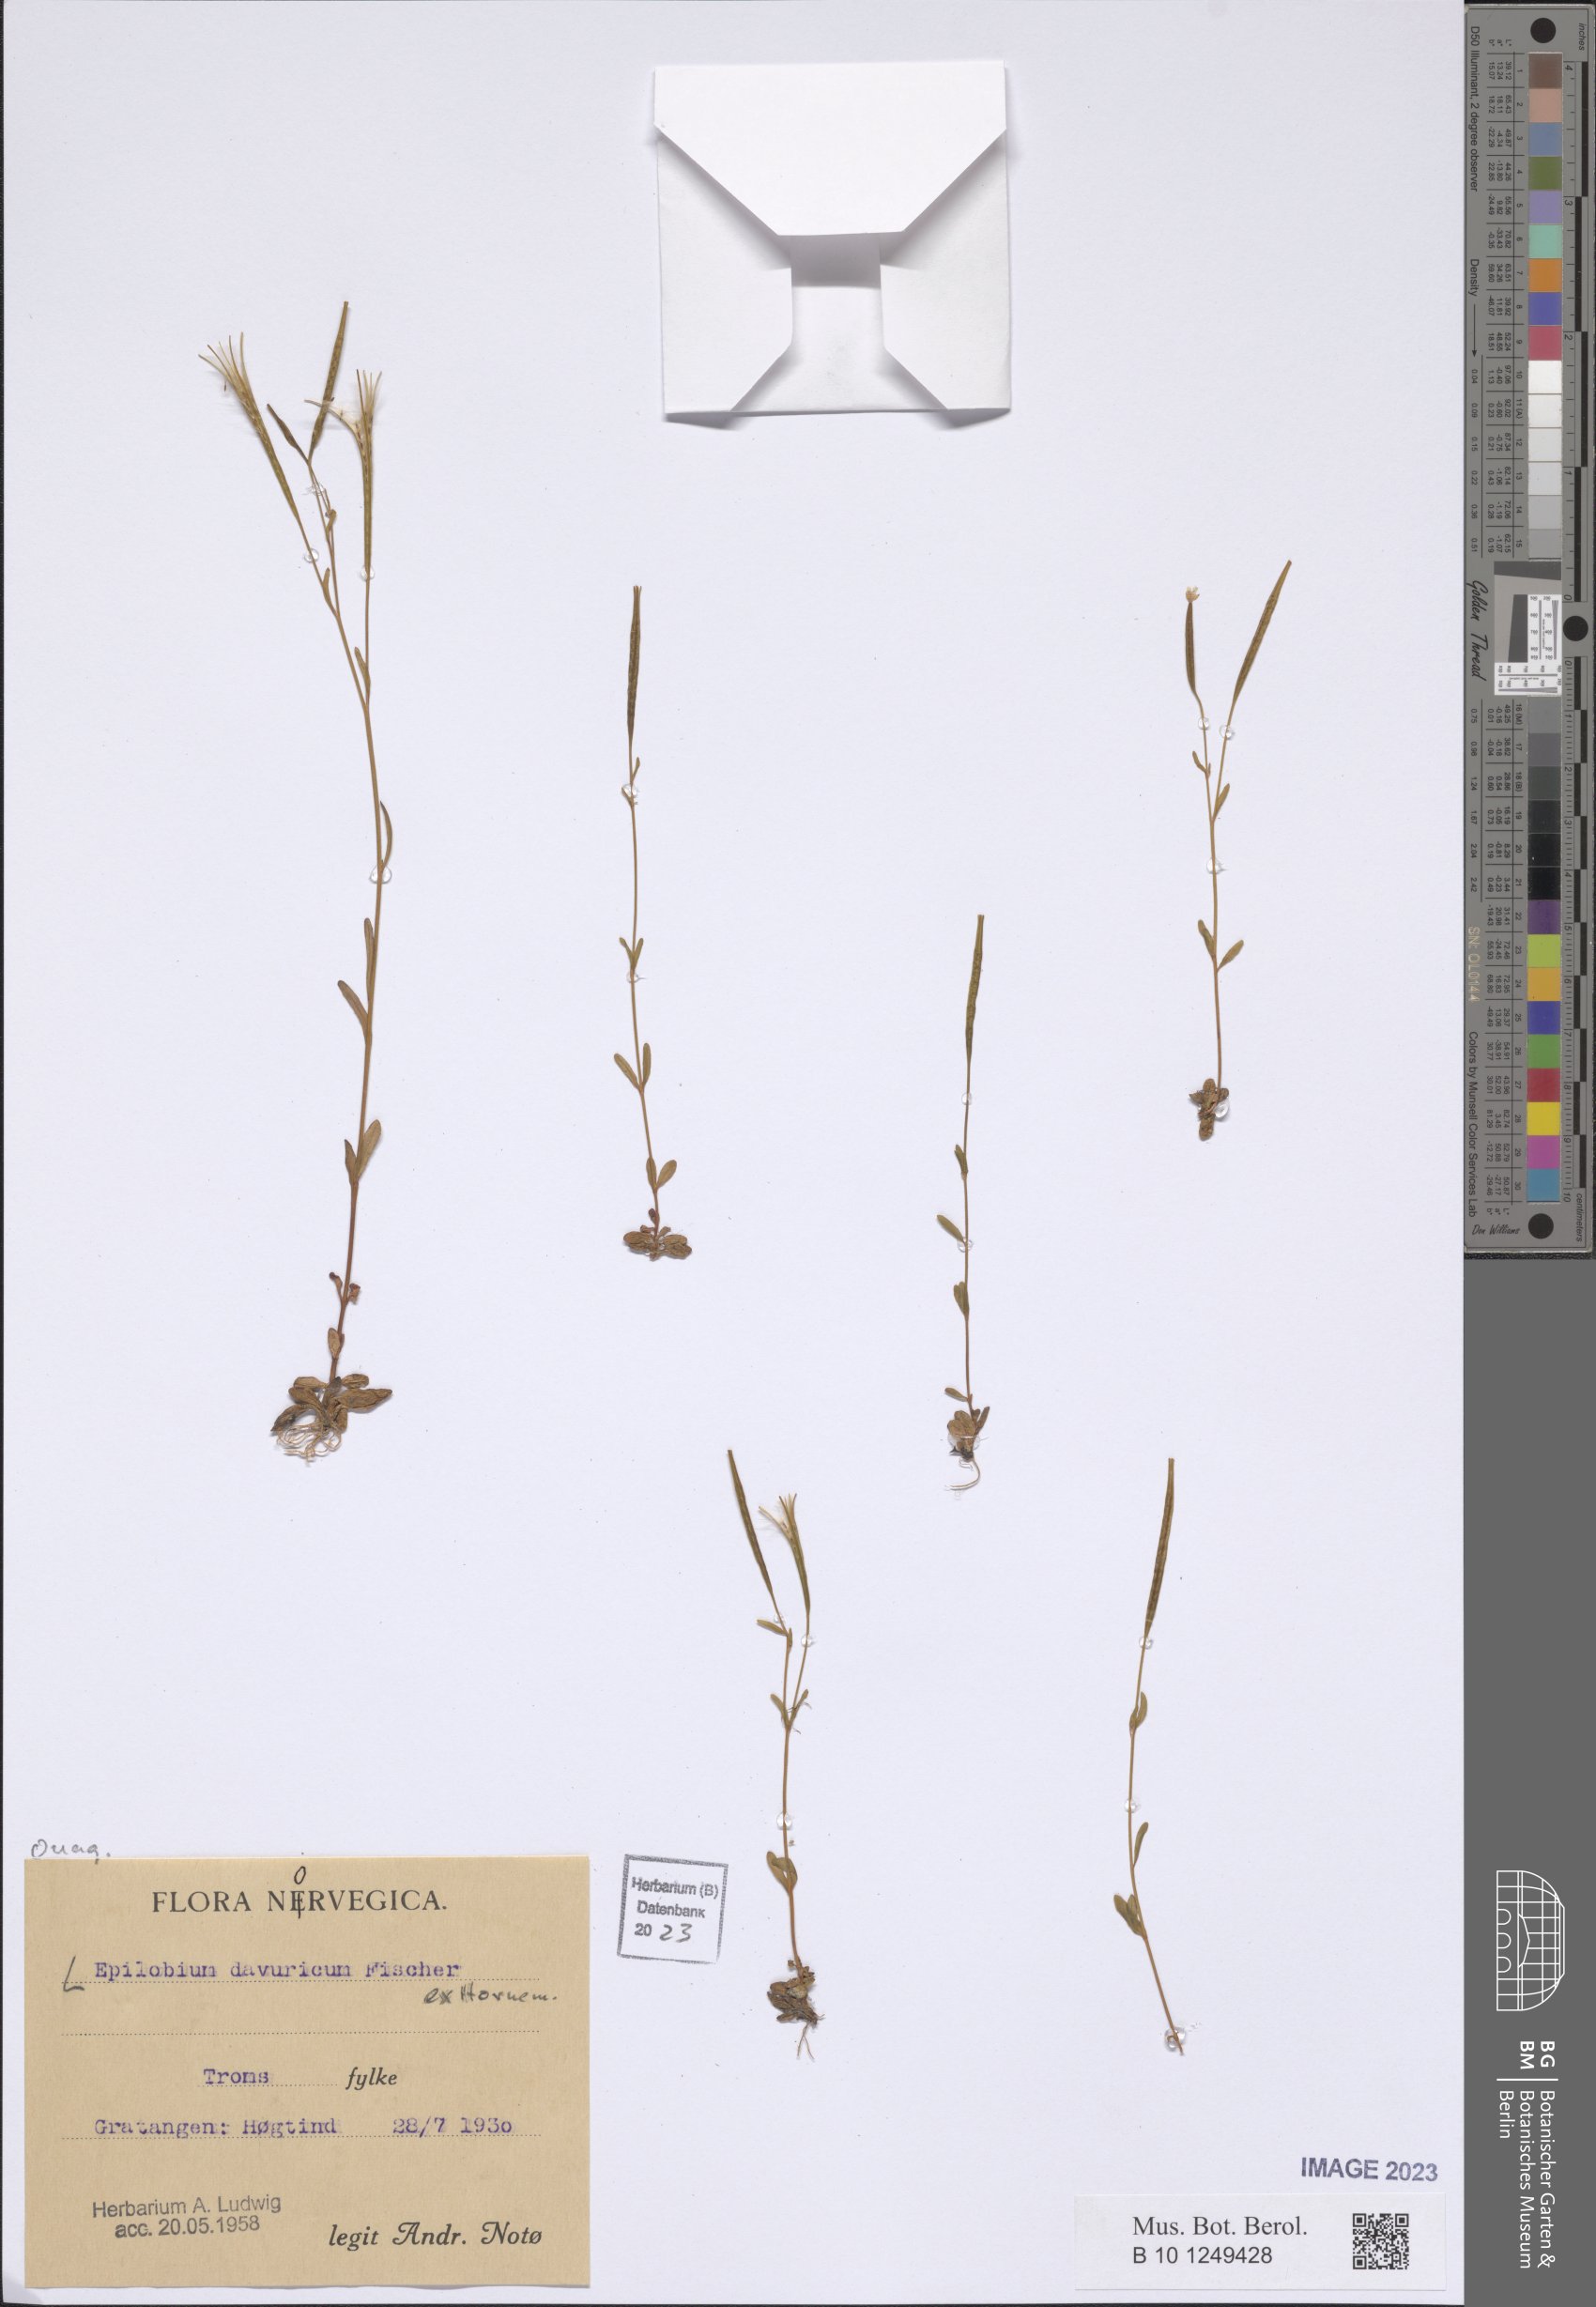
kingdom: Plantae
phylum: Tracheophyta
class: Magnoliopsida
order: Myrtales
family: Onagraceae
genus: Epilobium
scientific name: Epilobium davuricum
